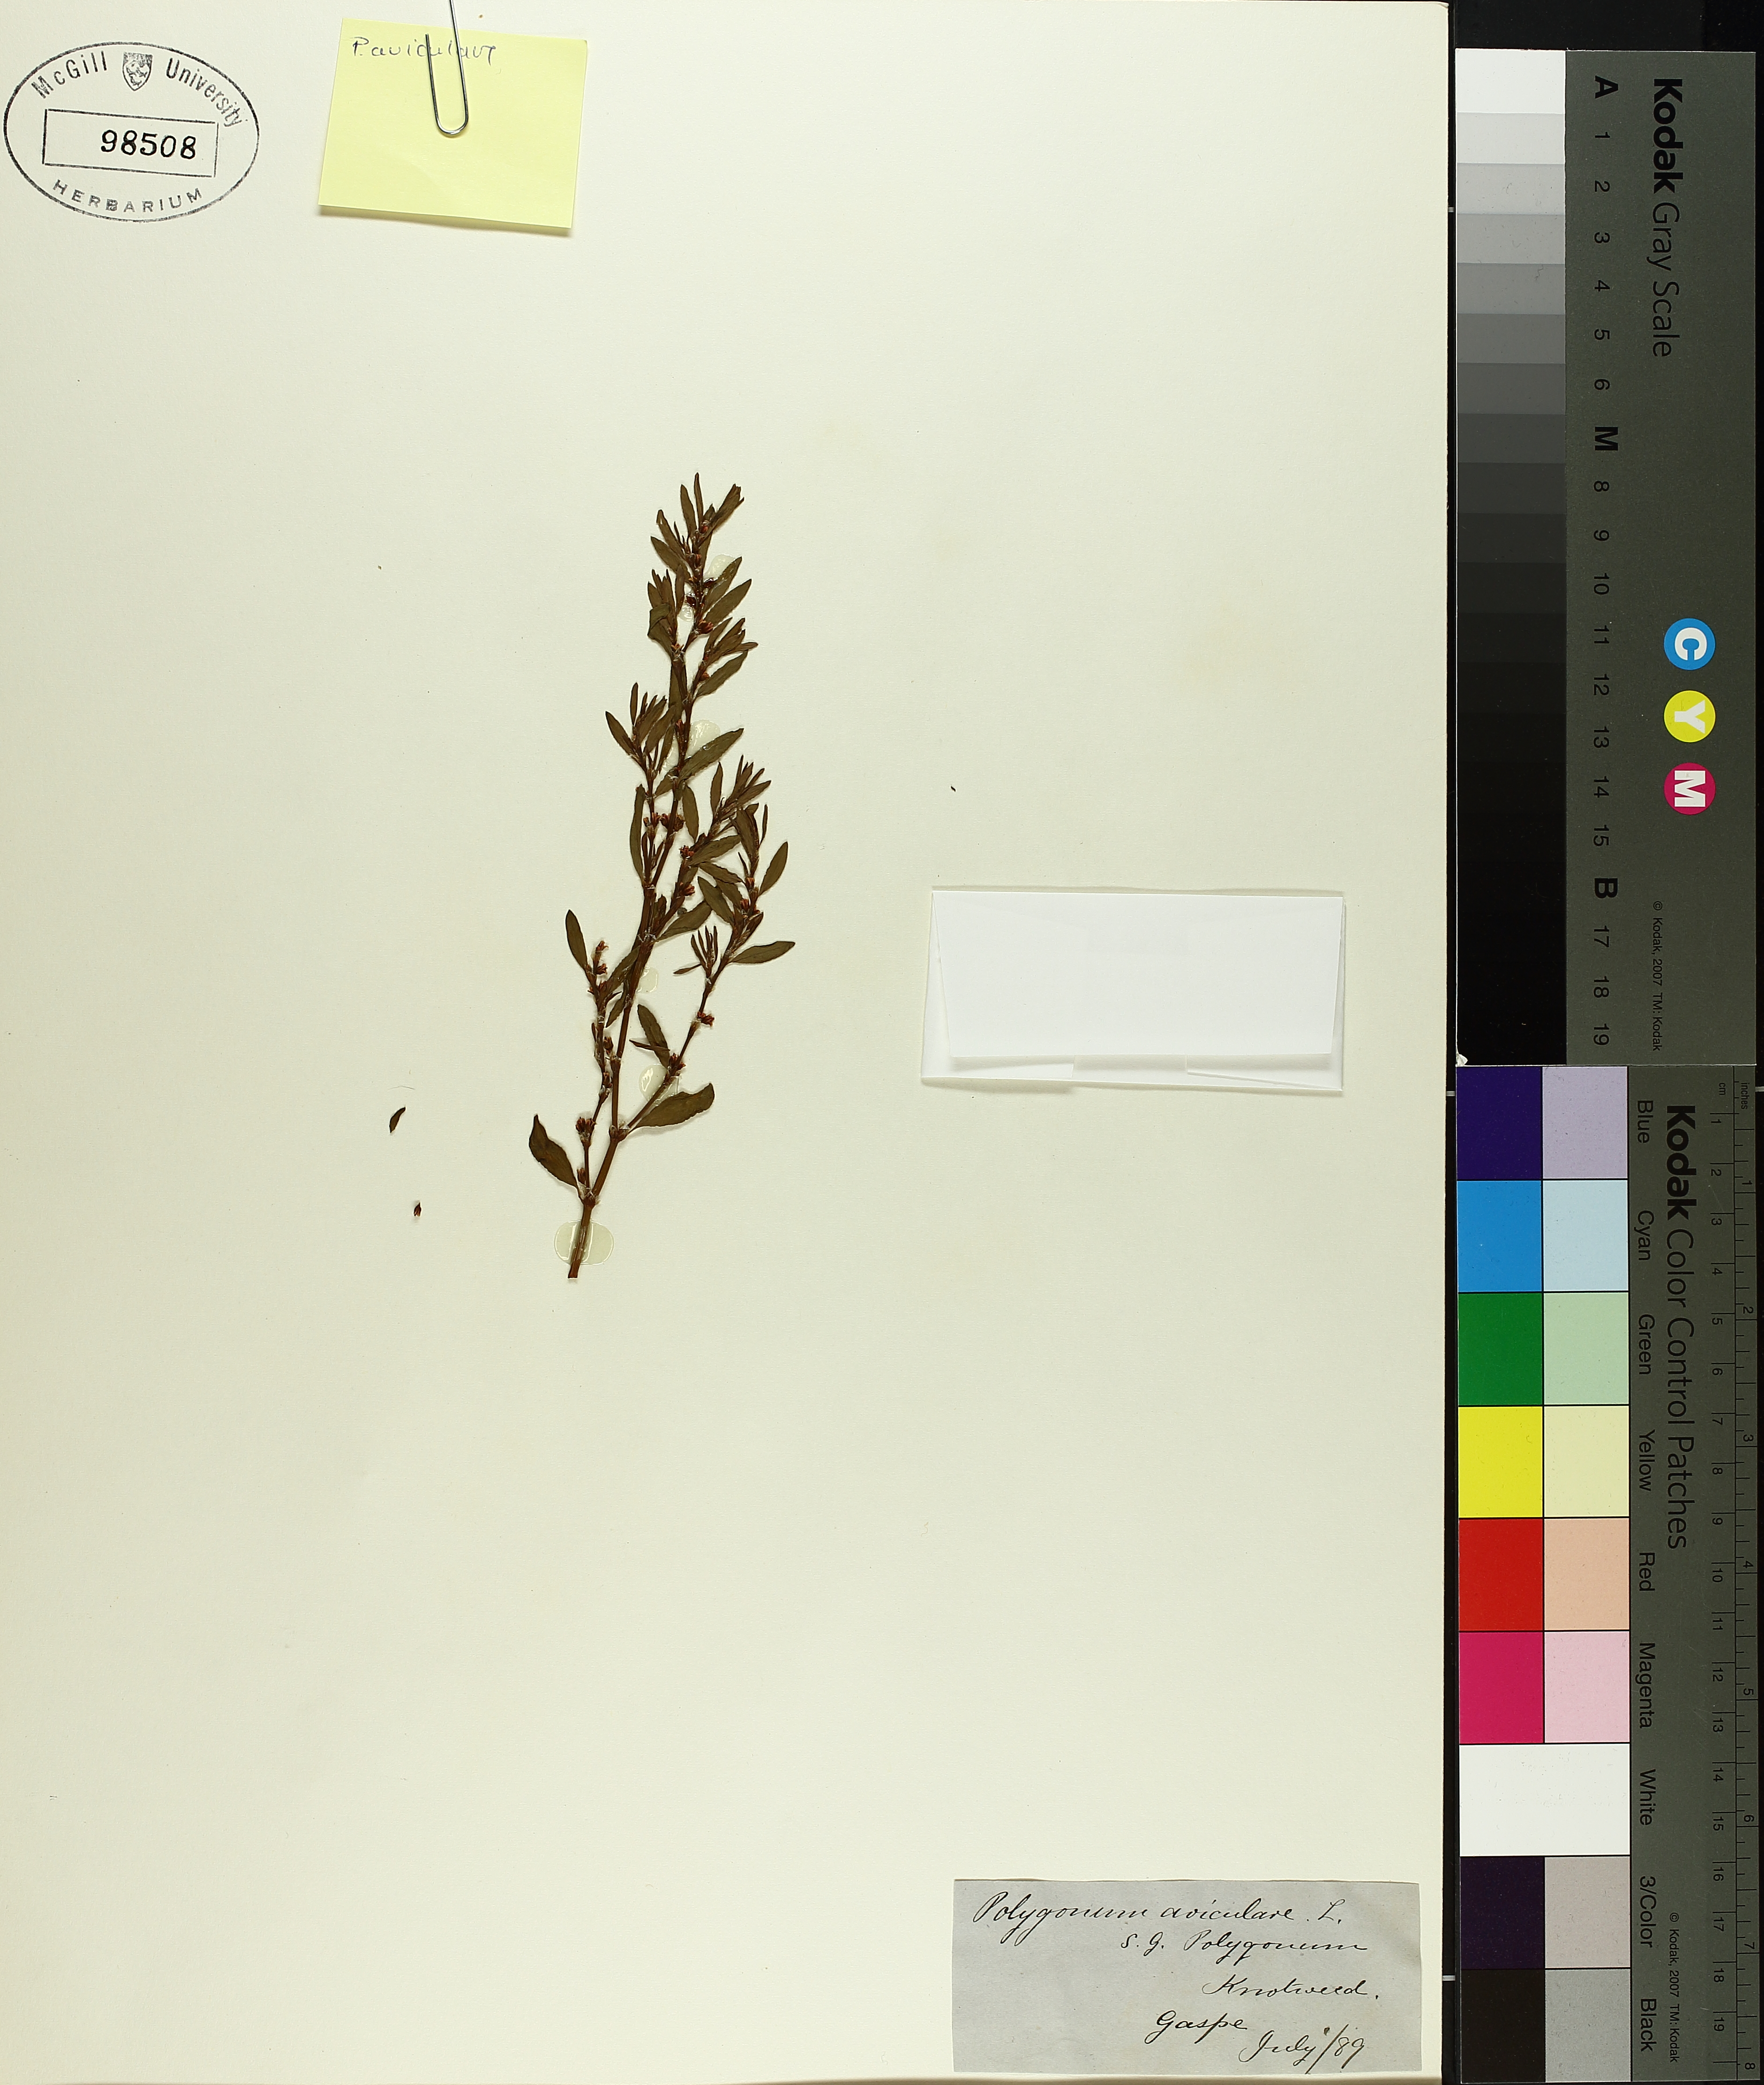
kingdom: Plantae
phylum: Tracheophyta
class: Magnoliopsida
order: Caryophyllales
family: Polygonaceae
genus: Polygonum
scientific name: Polygonum aviculare
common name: Prostrate knotweed
